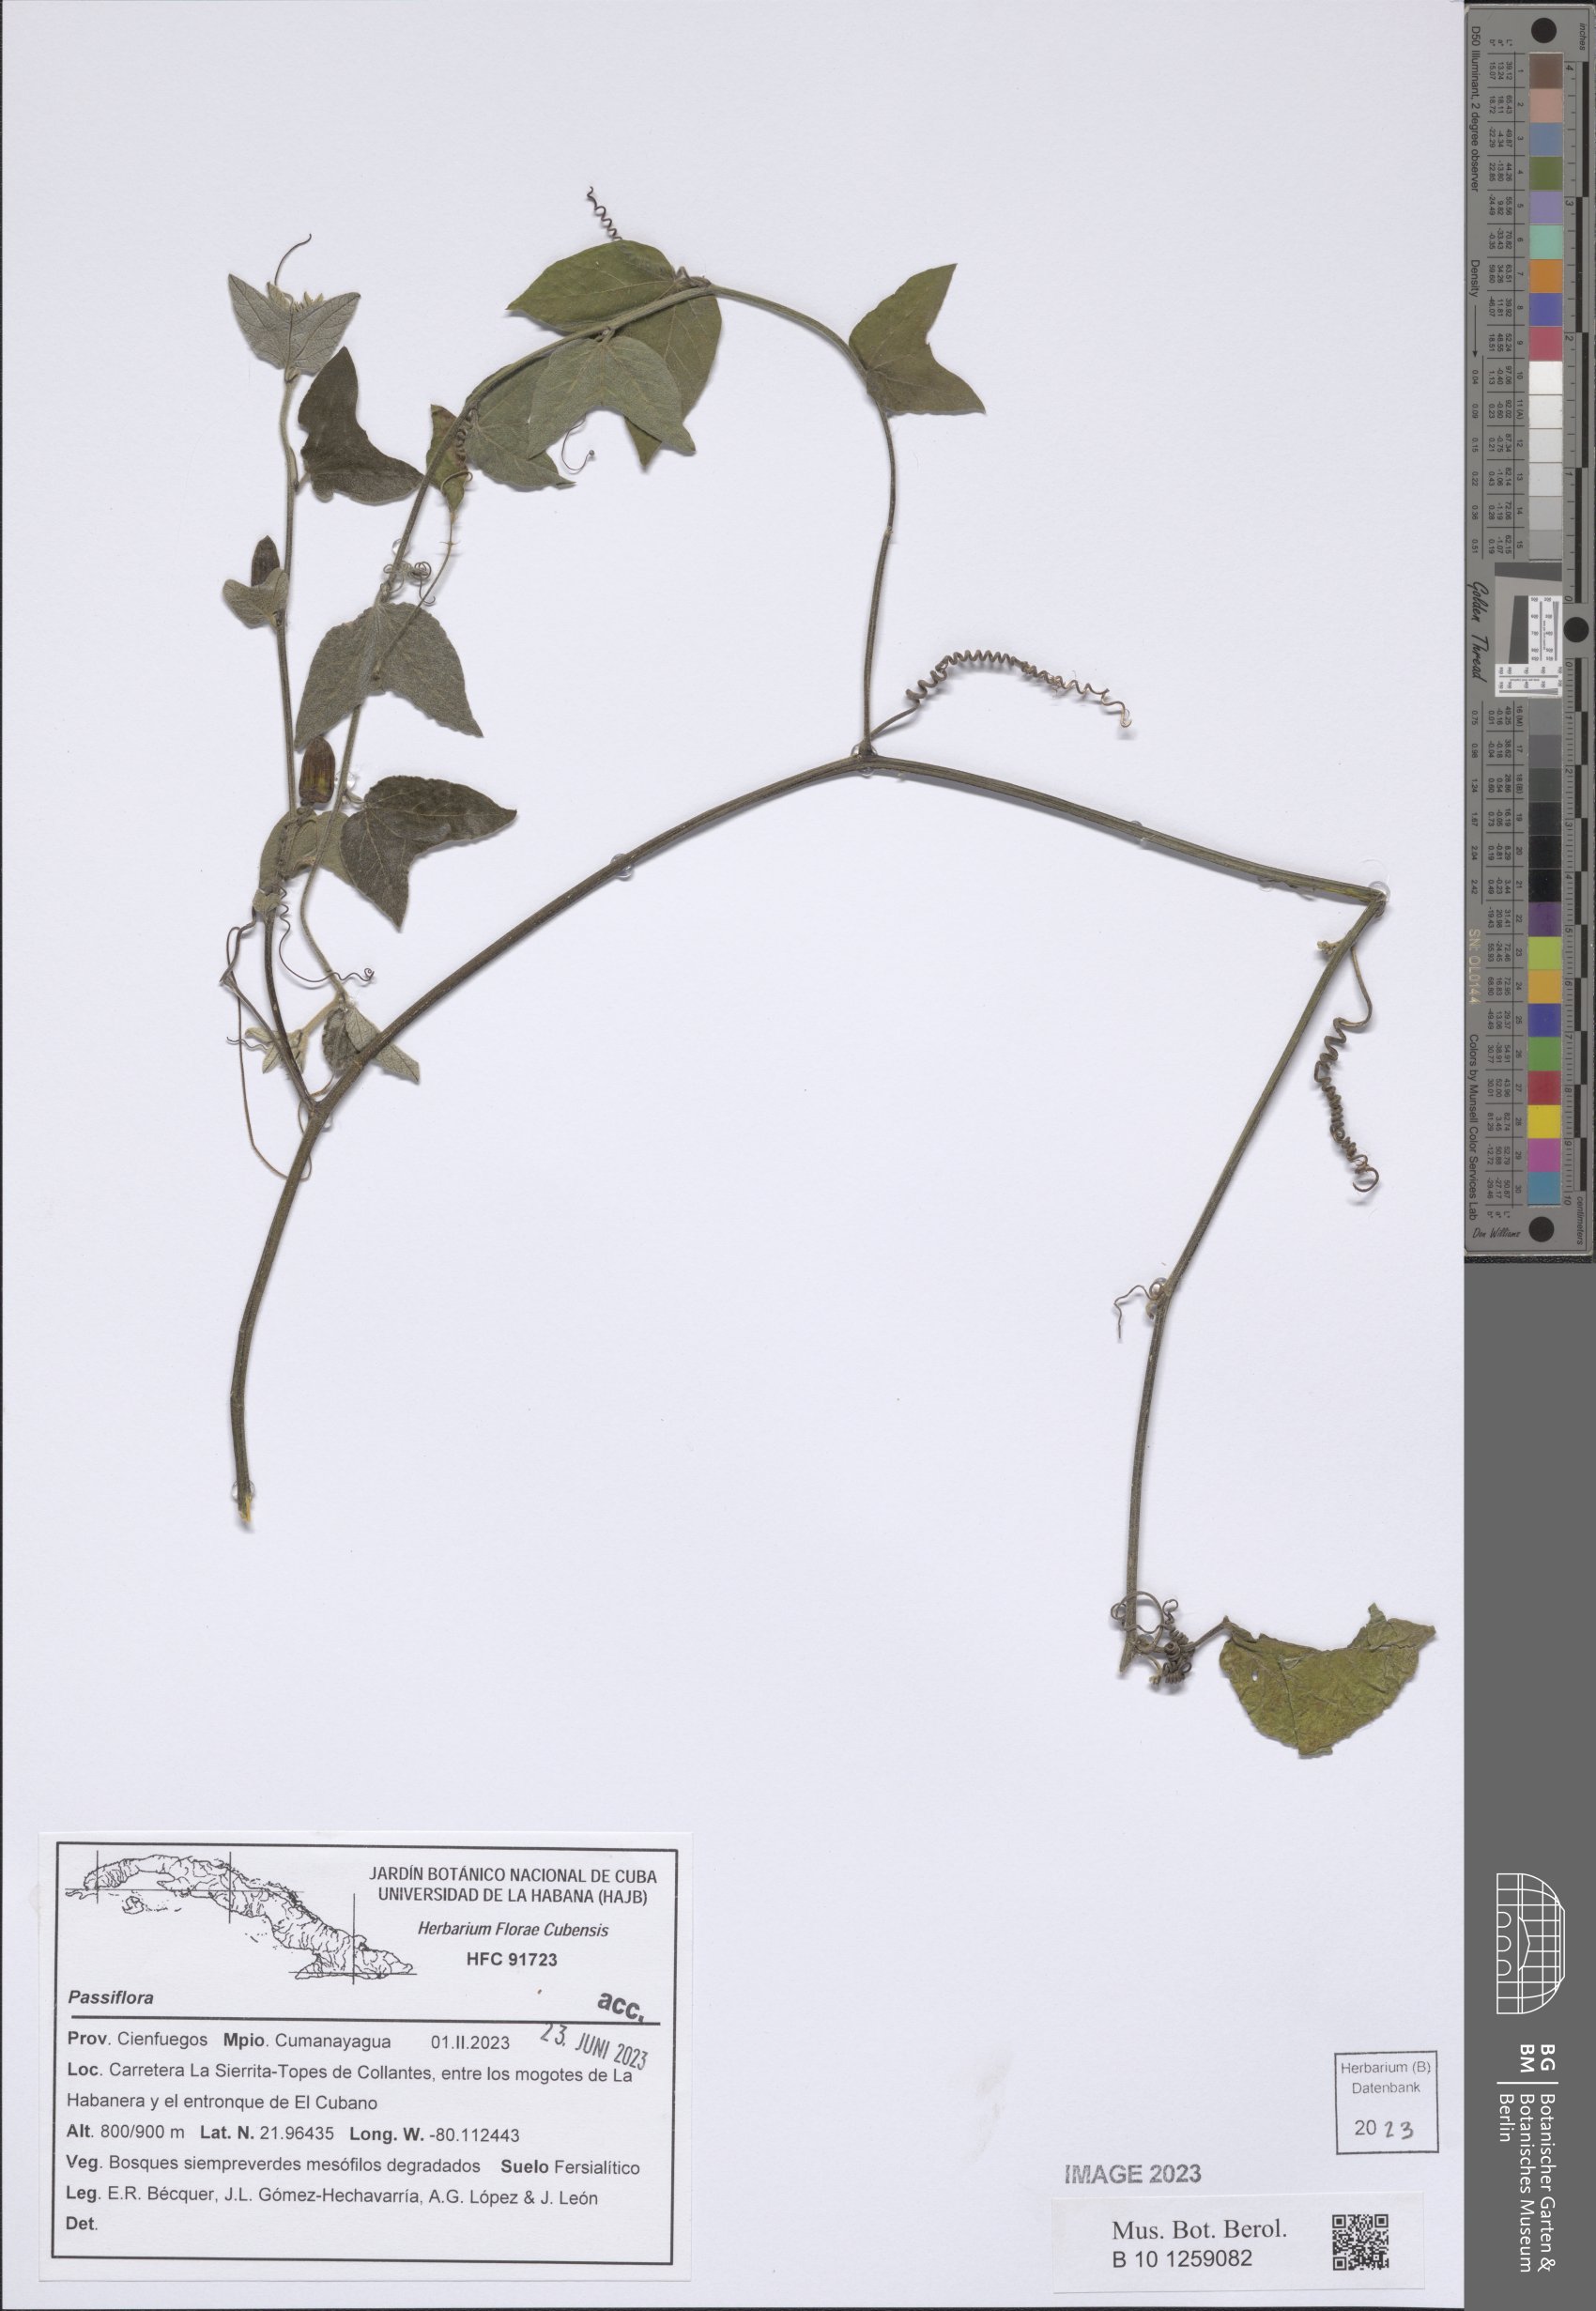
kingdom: Plantae
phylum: Tracheophyta
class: Magnoliopsida
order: Malpighiales
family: Passifloraceae
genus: Passiflora
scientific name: Passiflora
